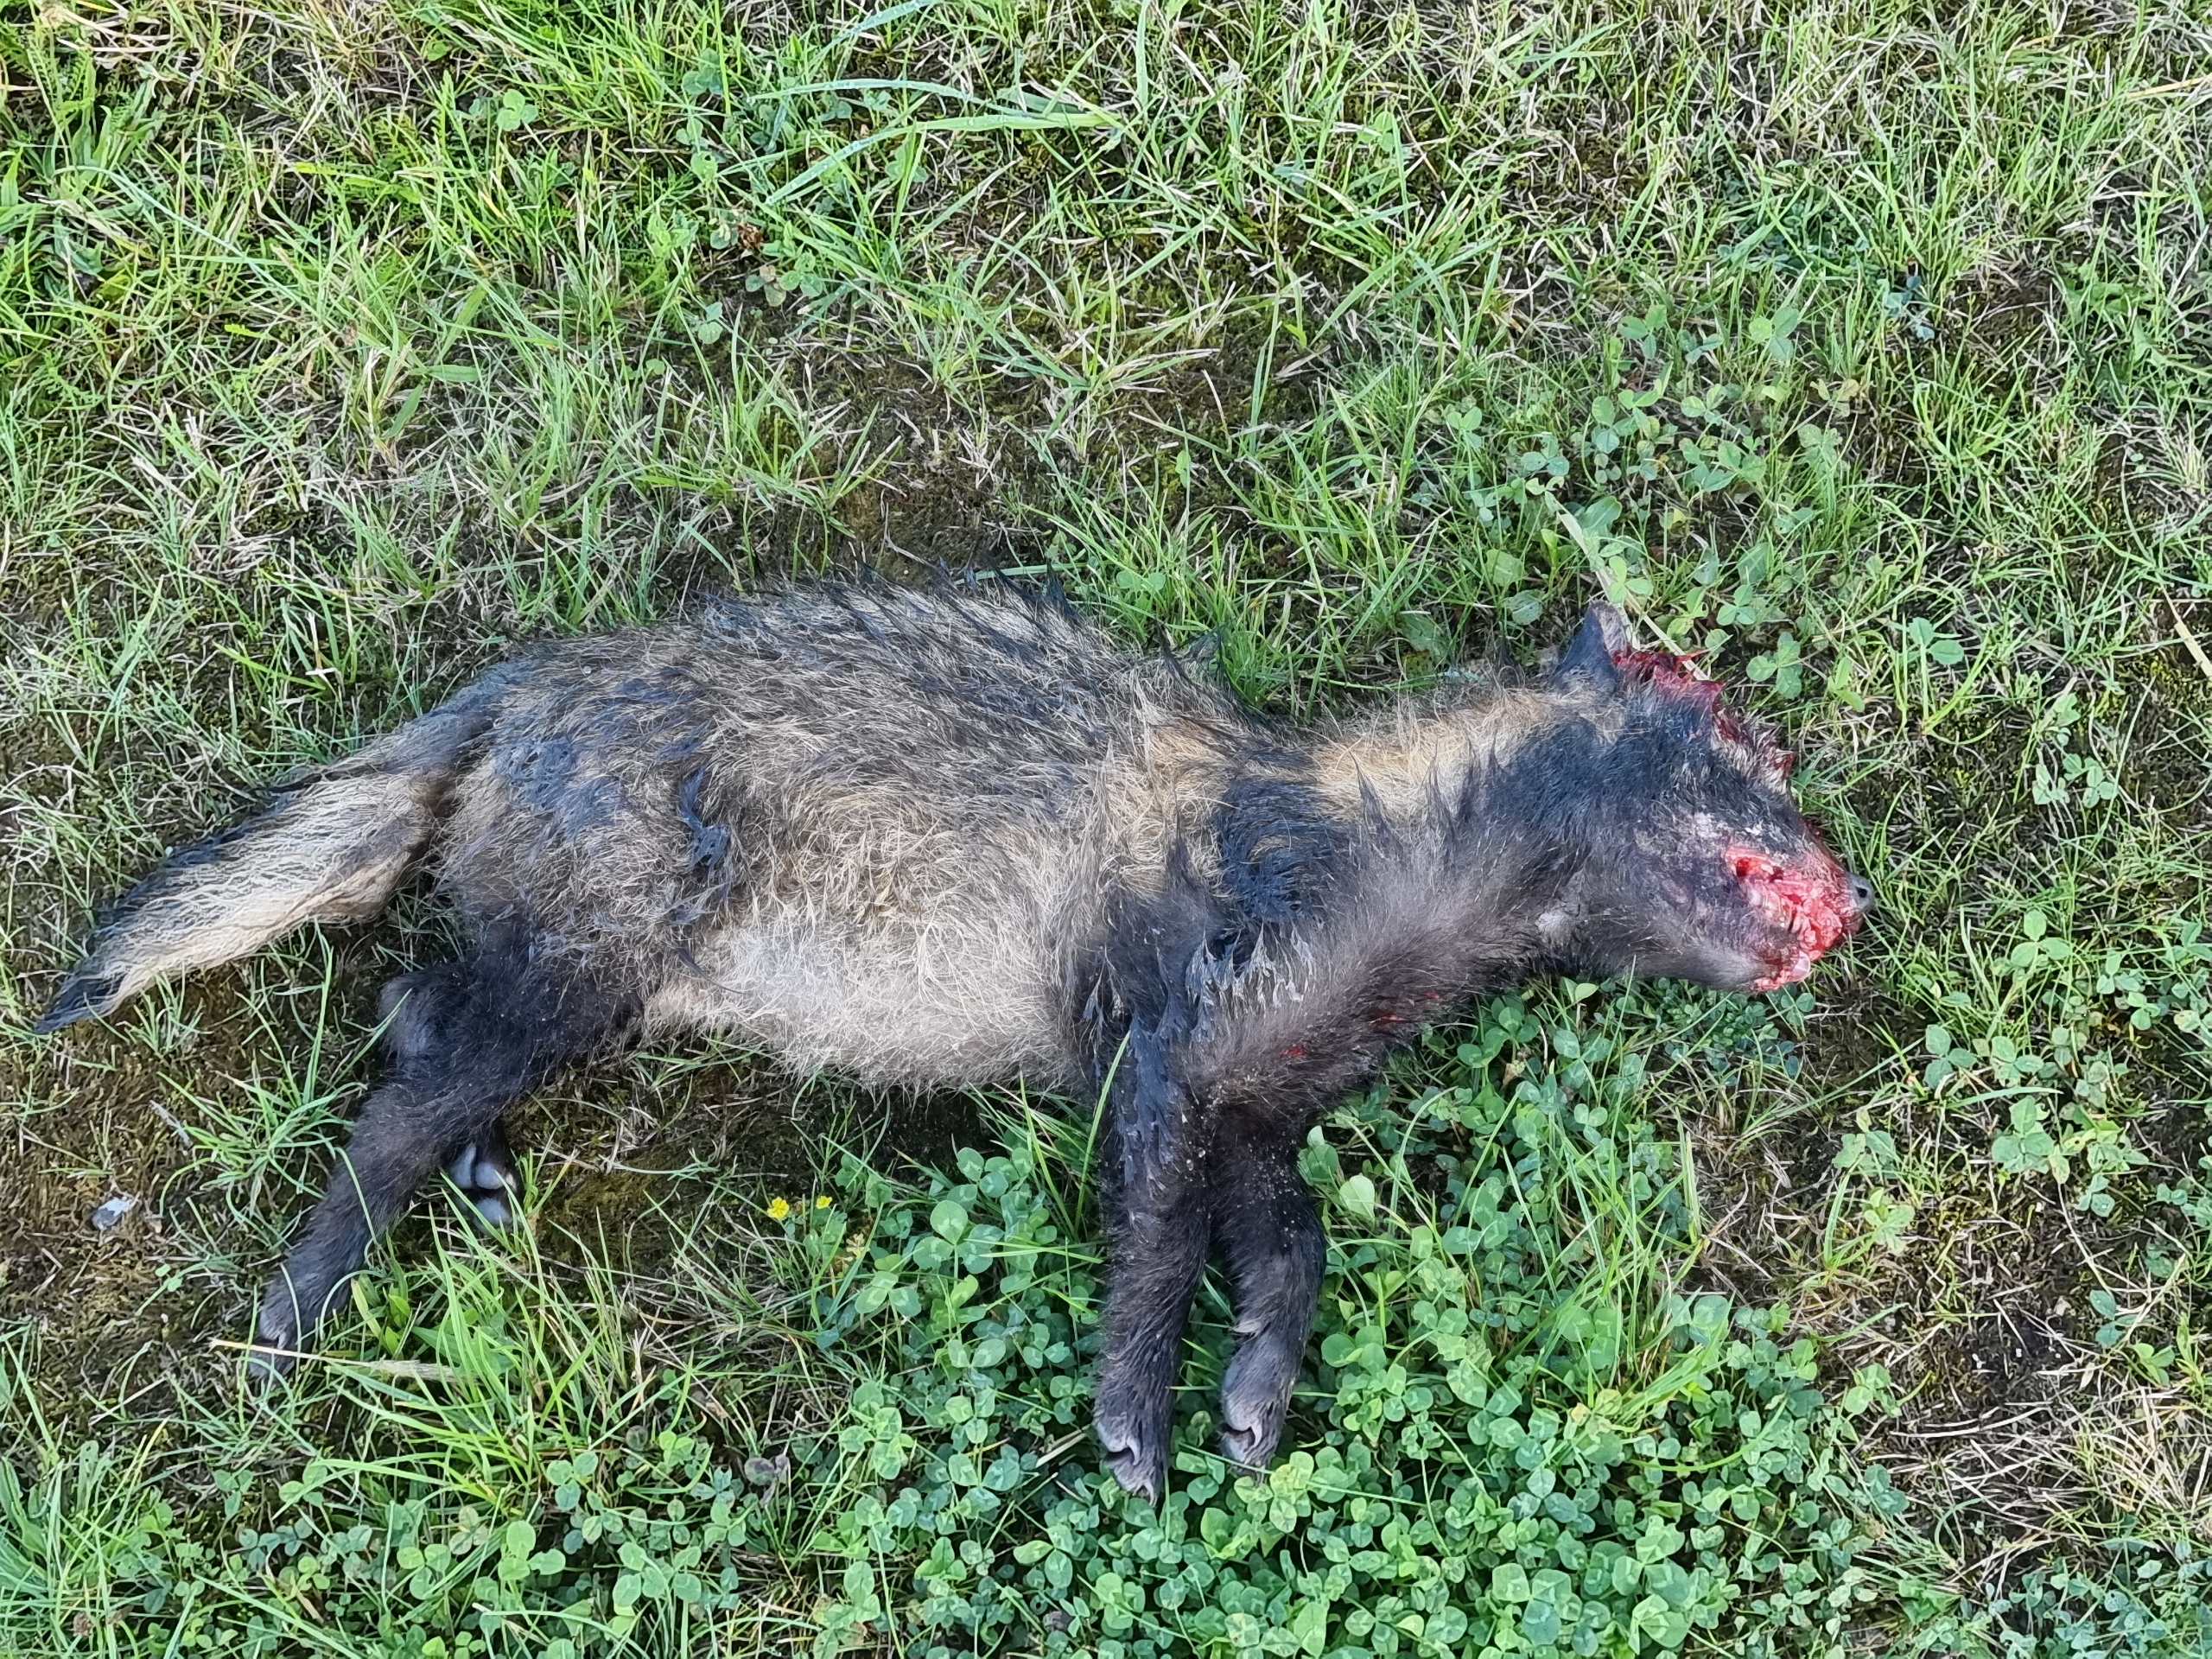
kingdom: Animalia
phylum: Chordata
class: Mammalia
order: Carnivora
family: Canidae
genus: Nyctereutes
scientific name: Nyctereutes procyonoides
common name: Mårhund
